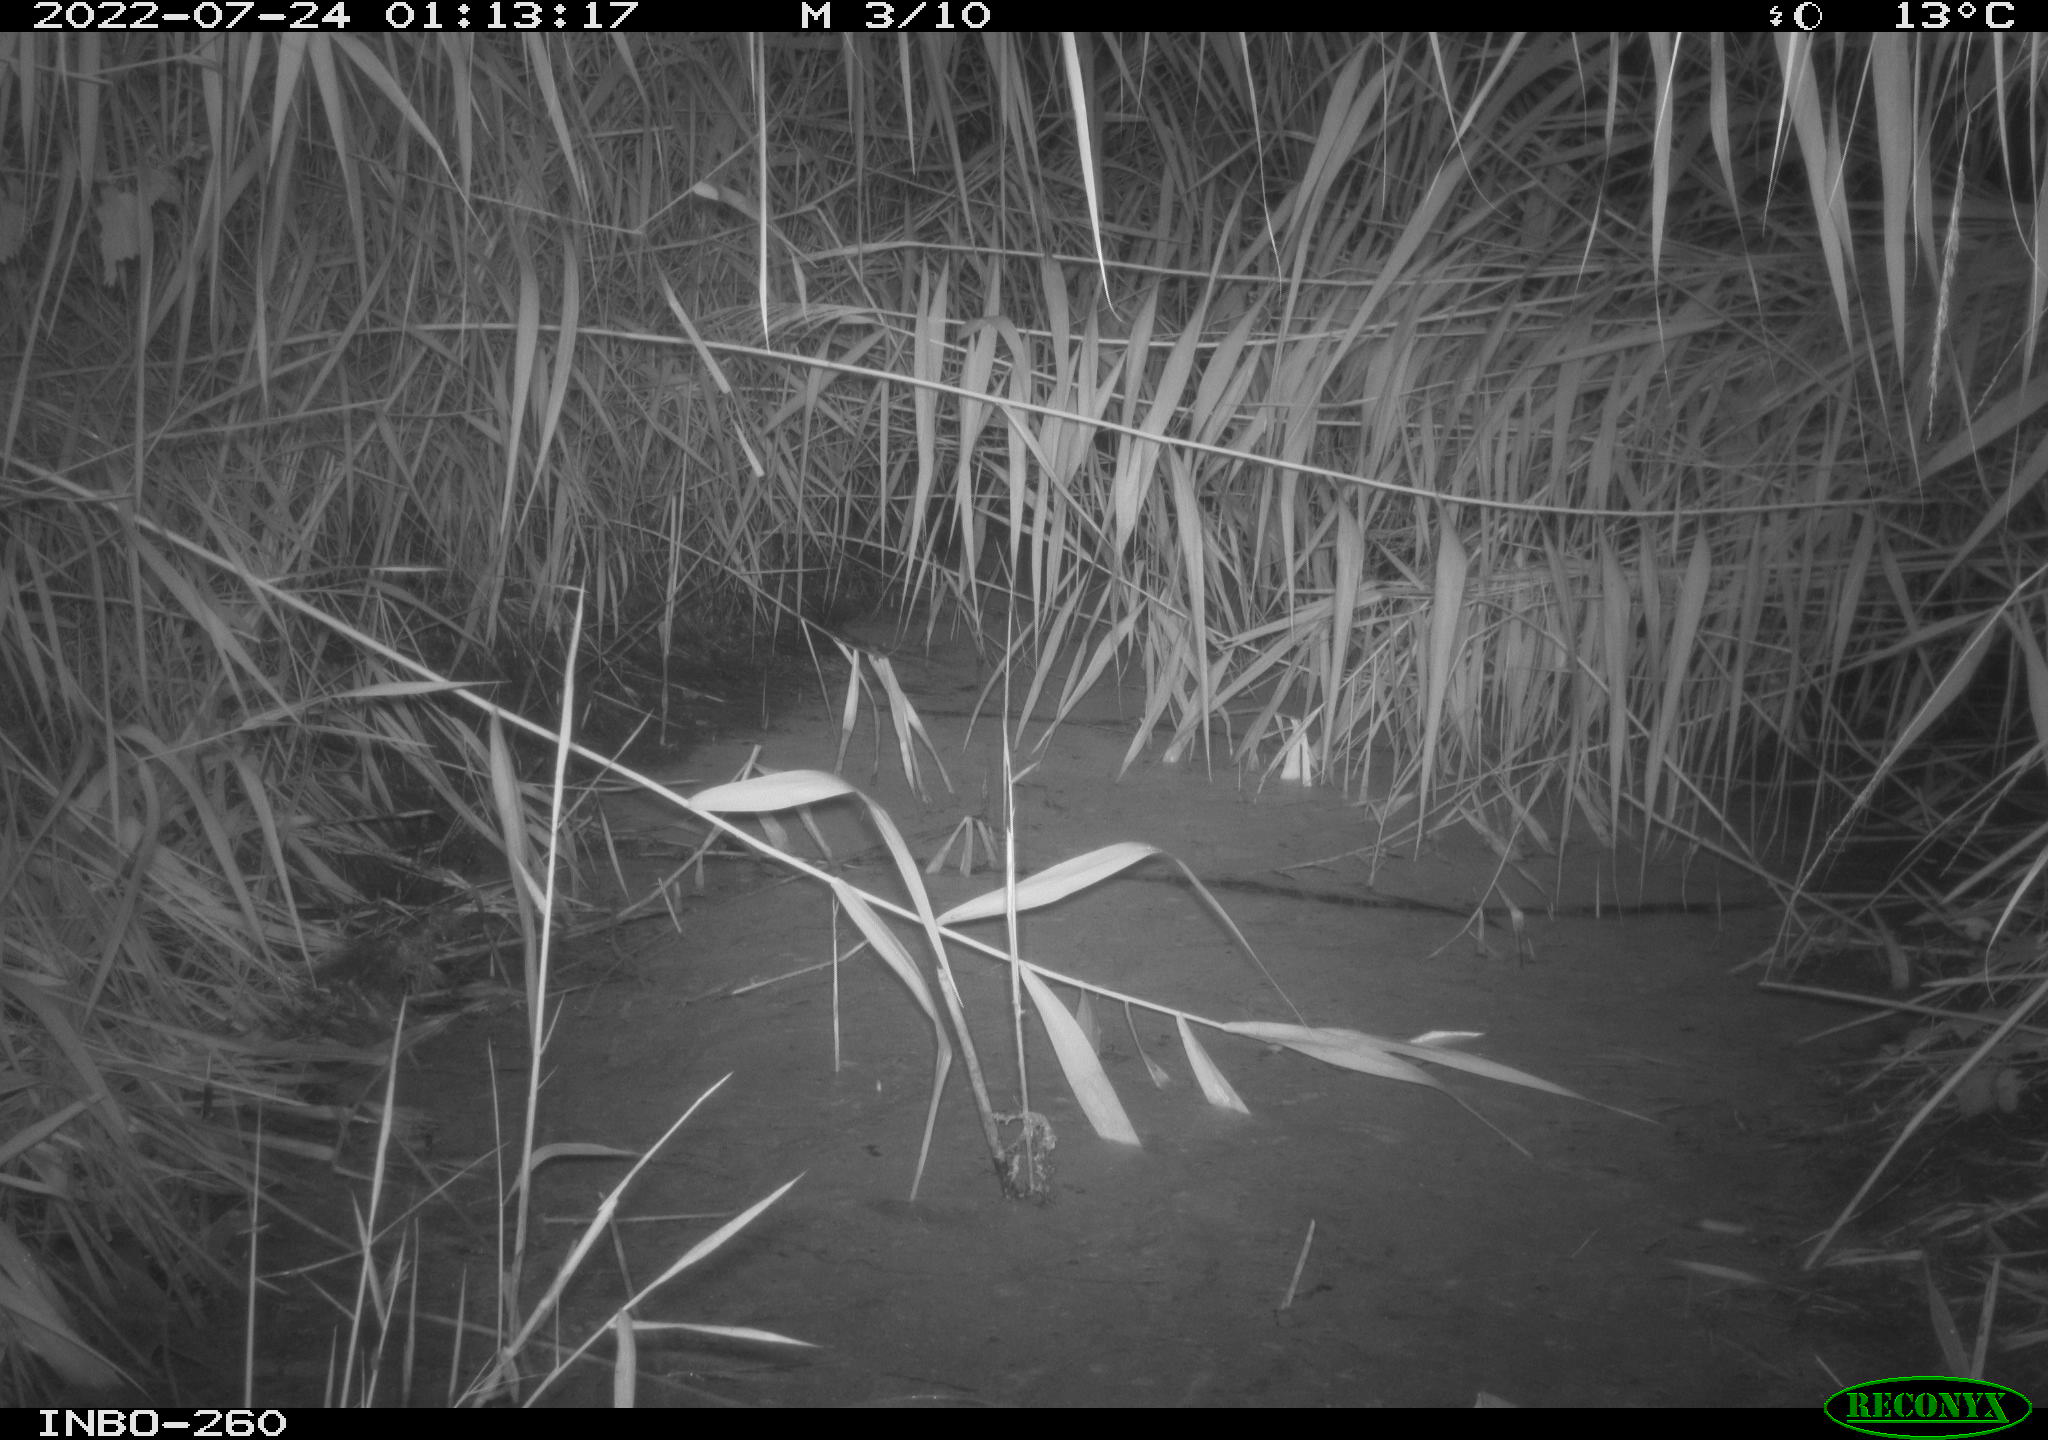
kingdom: Animalia
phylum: Chordata
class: Mammalia
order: Rodentia
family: Muridae
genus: Rattus
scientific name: Rattus norvegicus
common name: Brown rat
